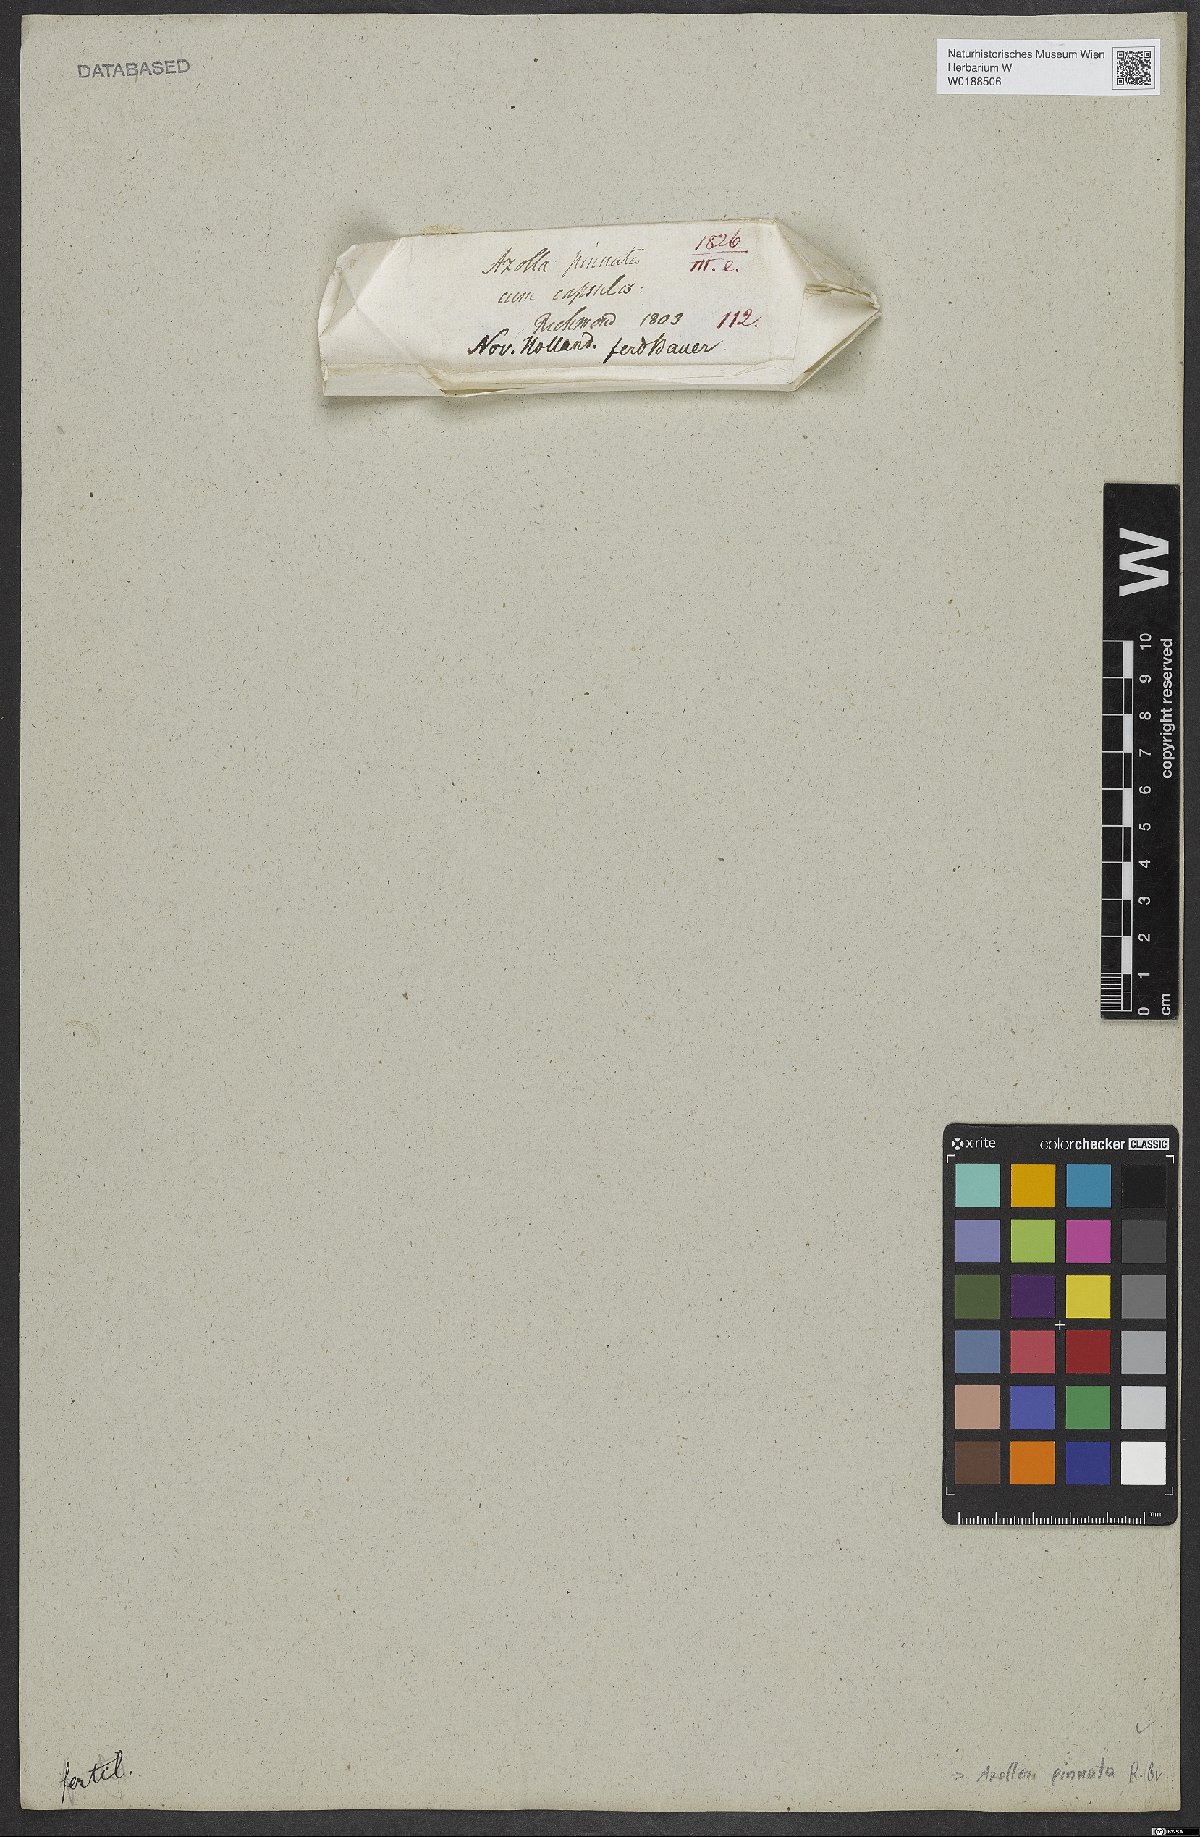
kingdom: Plantae
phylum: Tracheophyta
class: Polypodiopsida
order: Salviniales
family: Salviniaceae
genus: Azolla
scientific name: Azolla pinnata
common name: Ferny azolla
